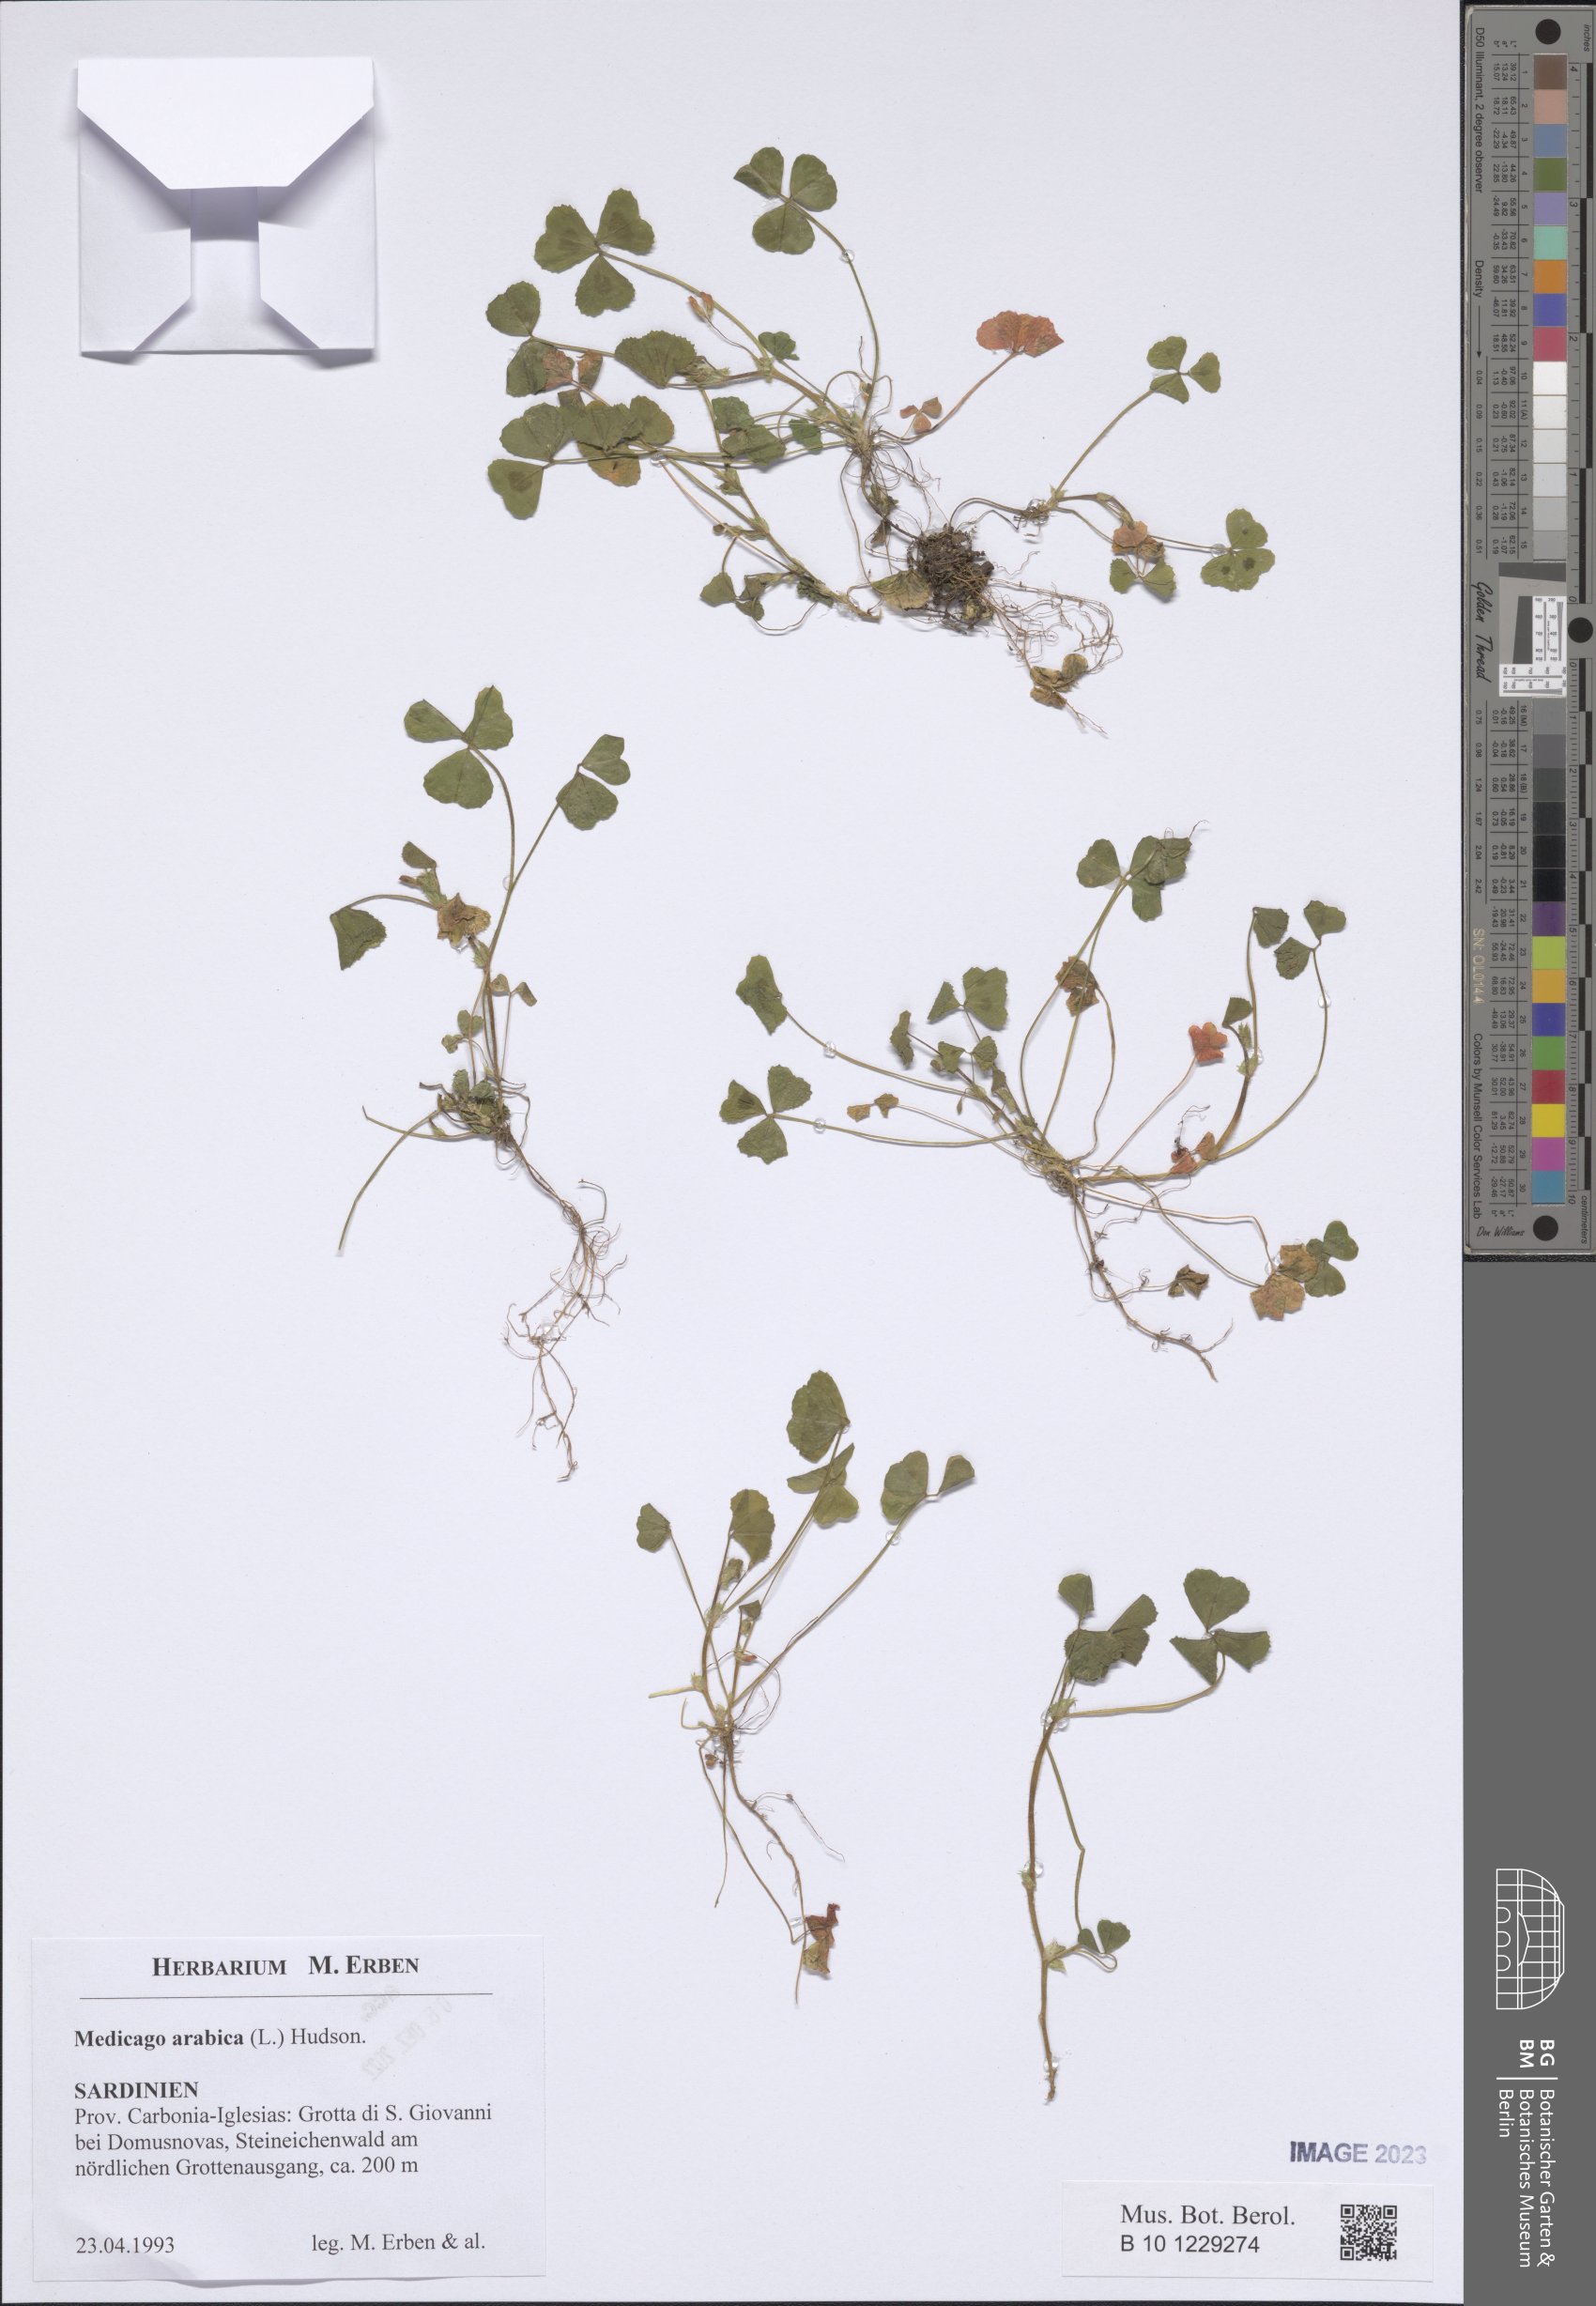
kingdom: Plantae
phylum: Tracheophyta
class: Magnoliopsida
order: Fabales
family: Fabaceae
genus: Medicago
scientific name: Medicago arabica
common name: Spotted medick
